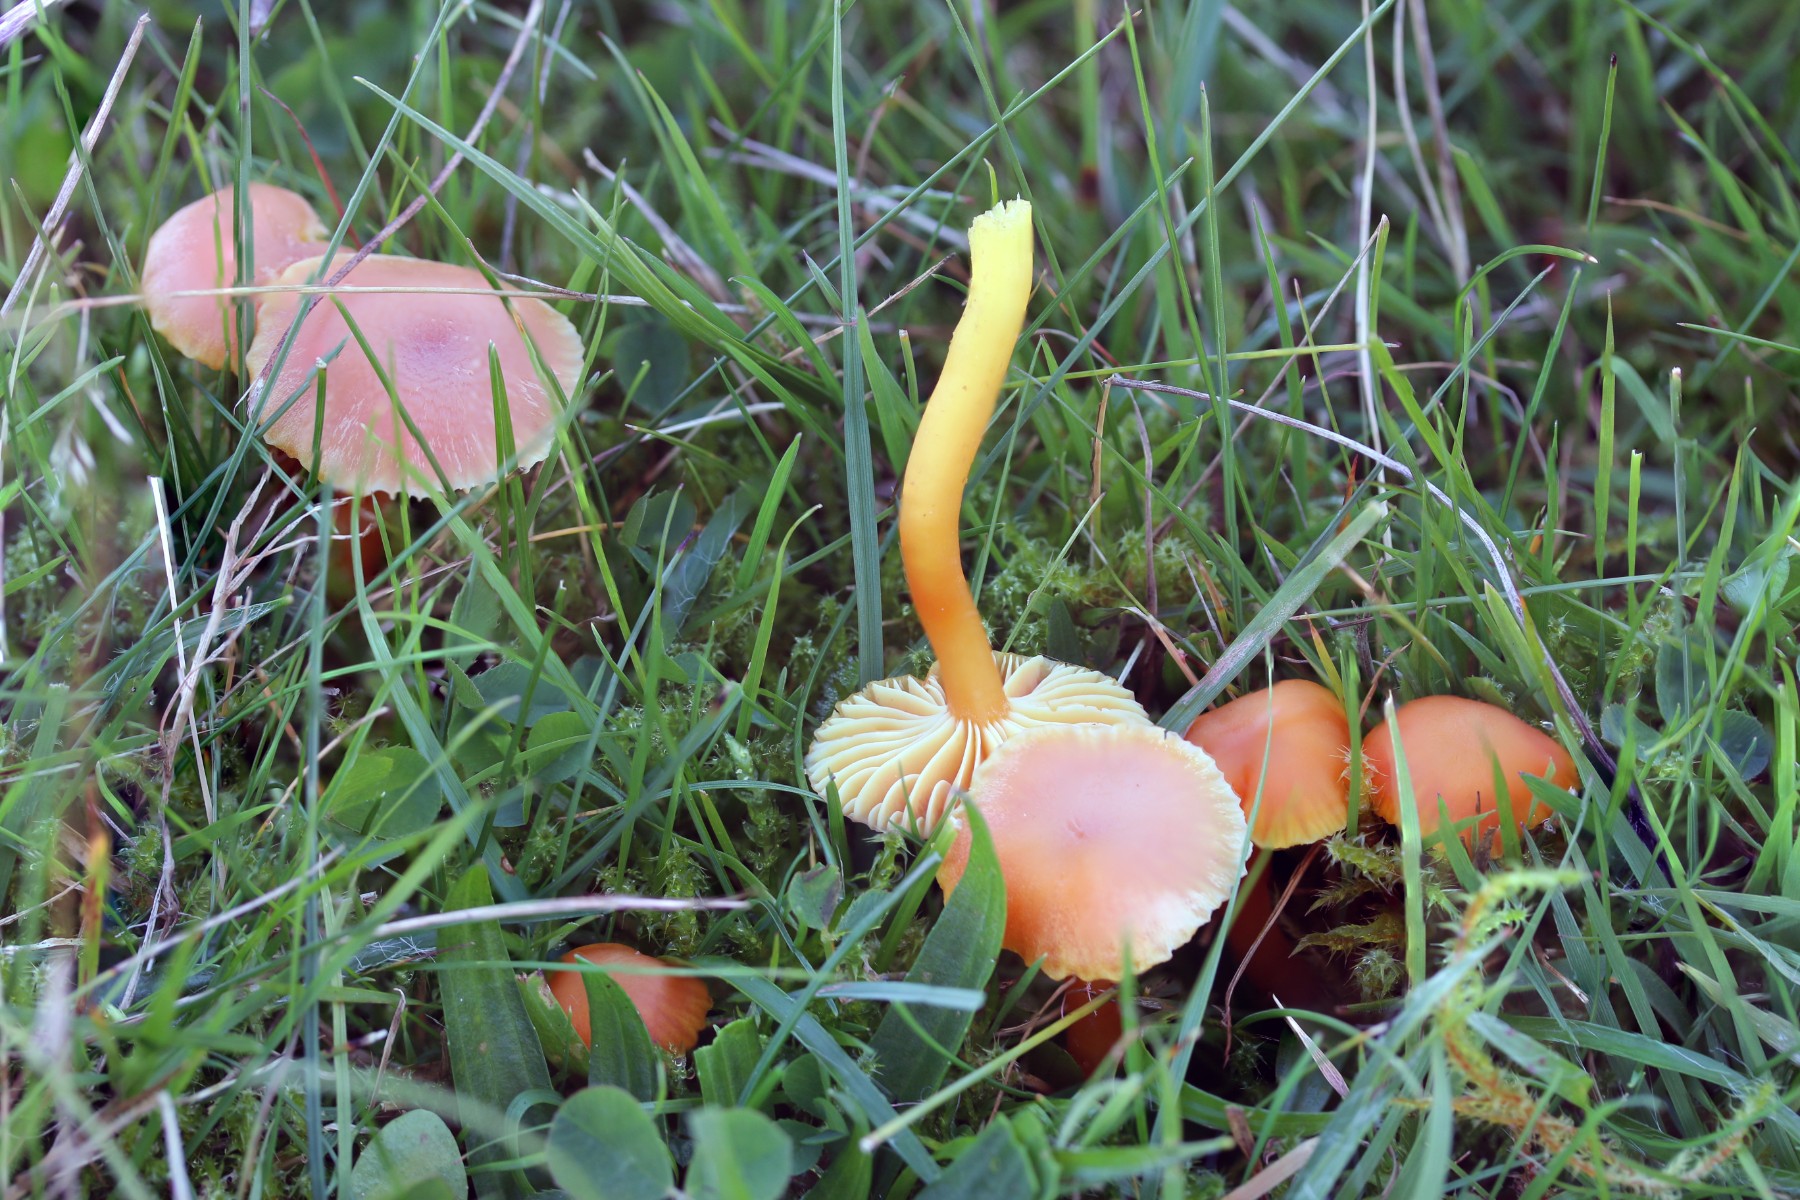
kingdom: Fungi
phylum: Basidiomycota
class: Agaricomycetes
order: Agaricales
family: Hygrophoraceae
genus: Hygrocybe
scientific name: Hygrocybe reidii
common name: honning-vokshat
